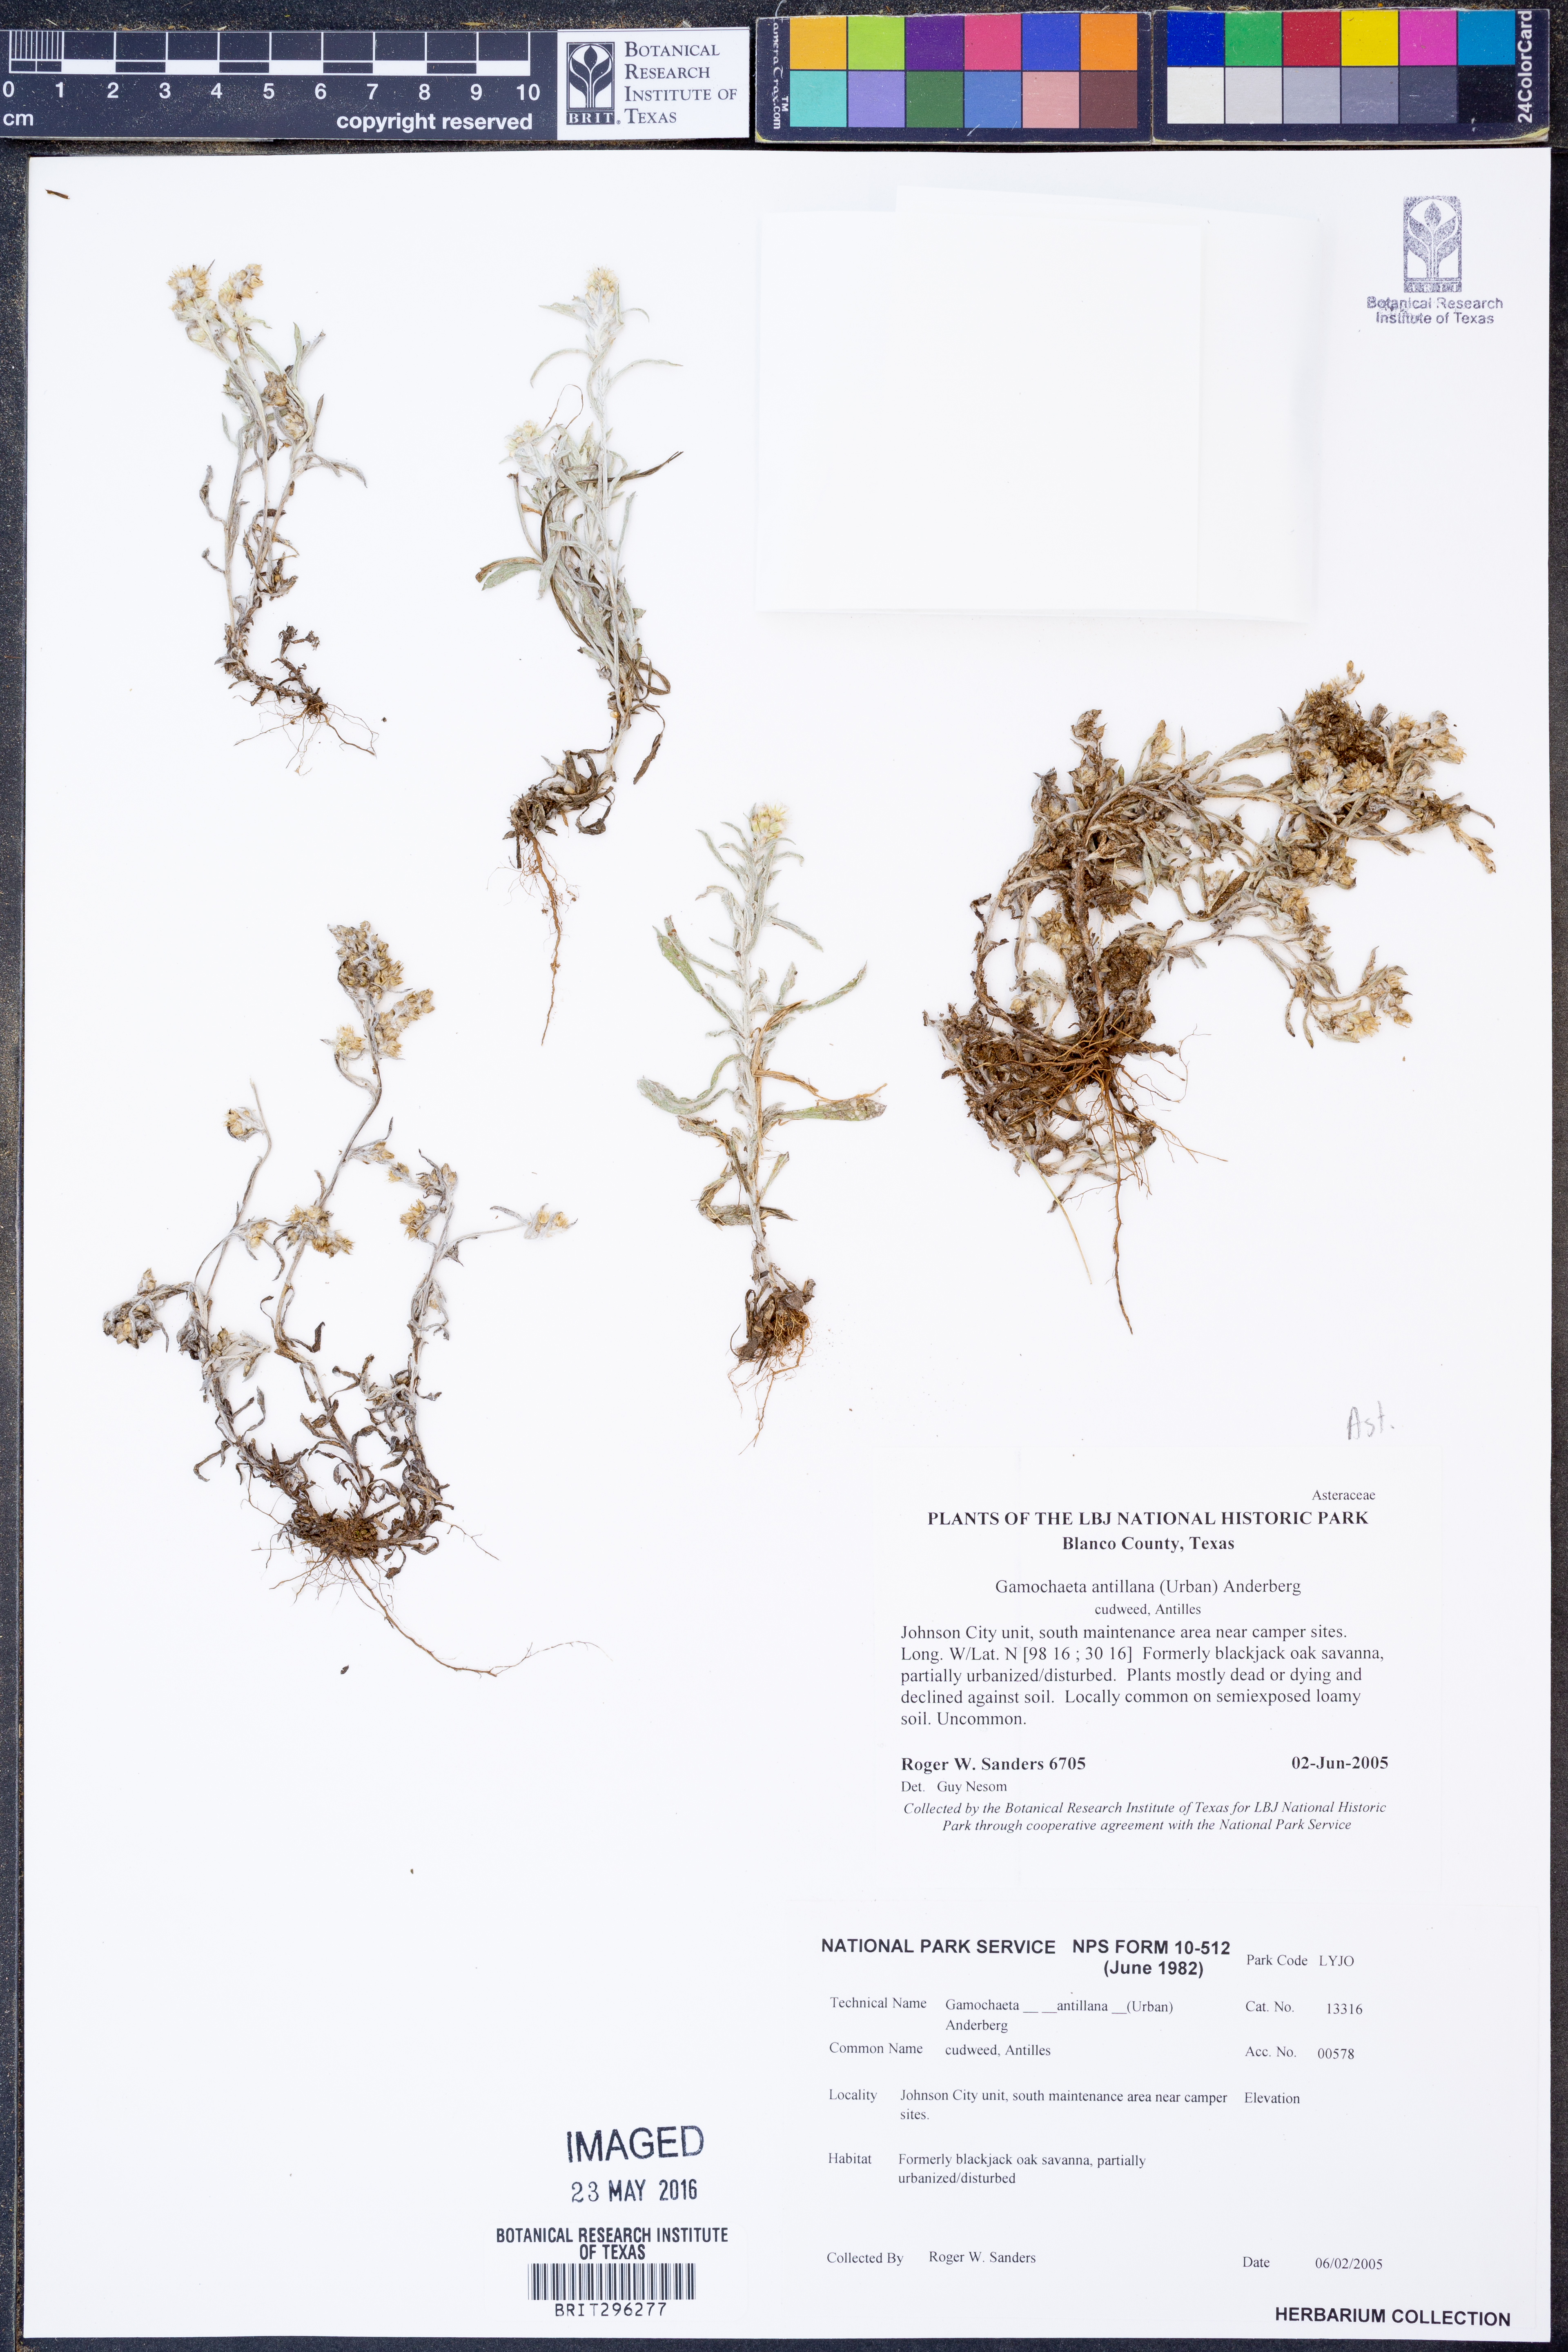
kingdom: Plantae
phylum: Tracheophyta
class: Magnoliopsida
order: Asterales
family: Asteraceae
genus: Gamochaeta
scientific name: Gamochaeta antillana
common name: Delicate everlasting
